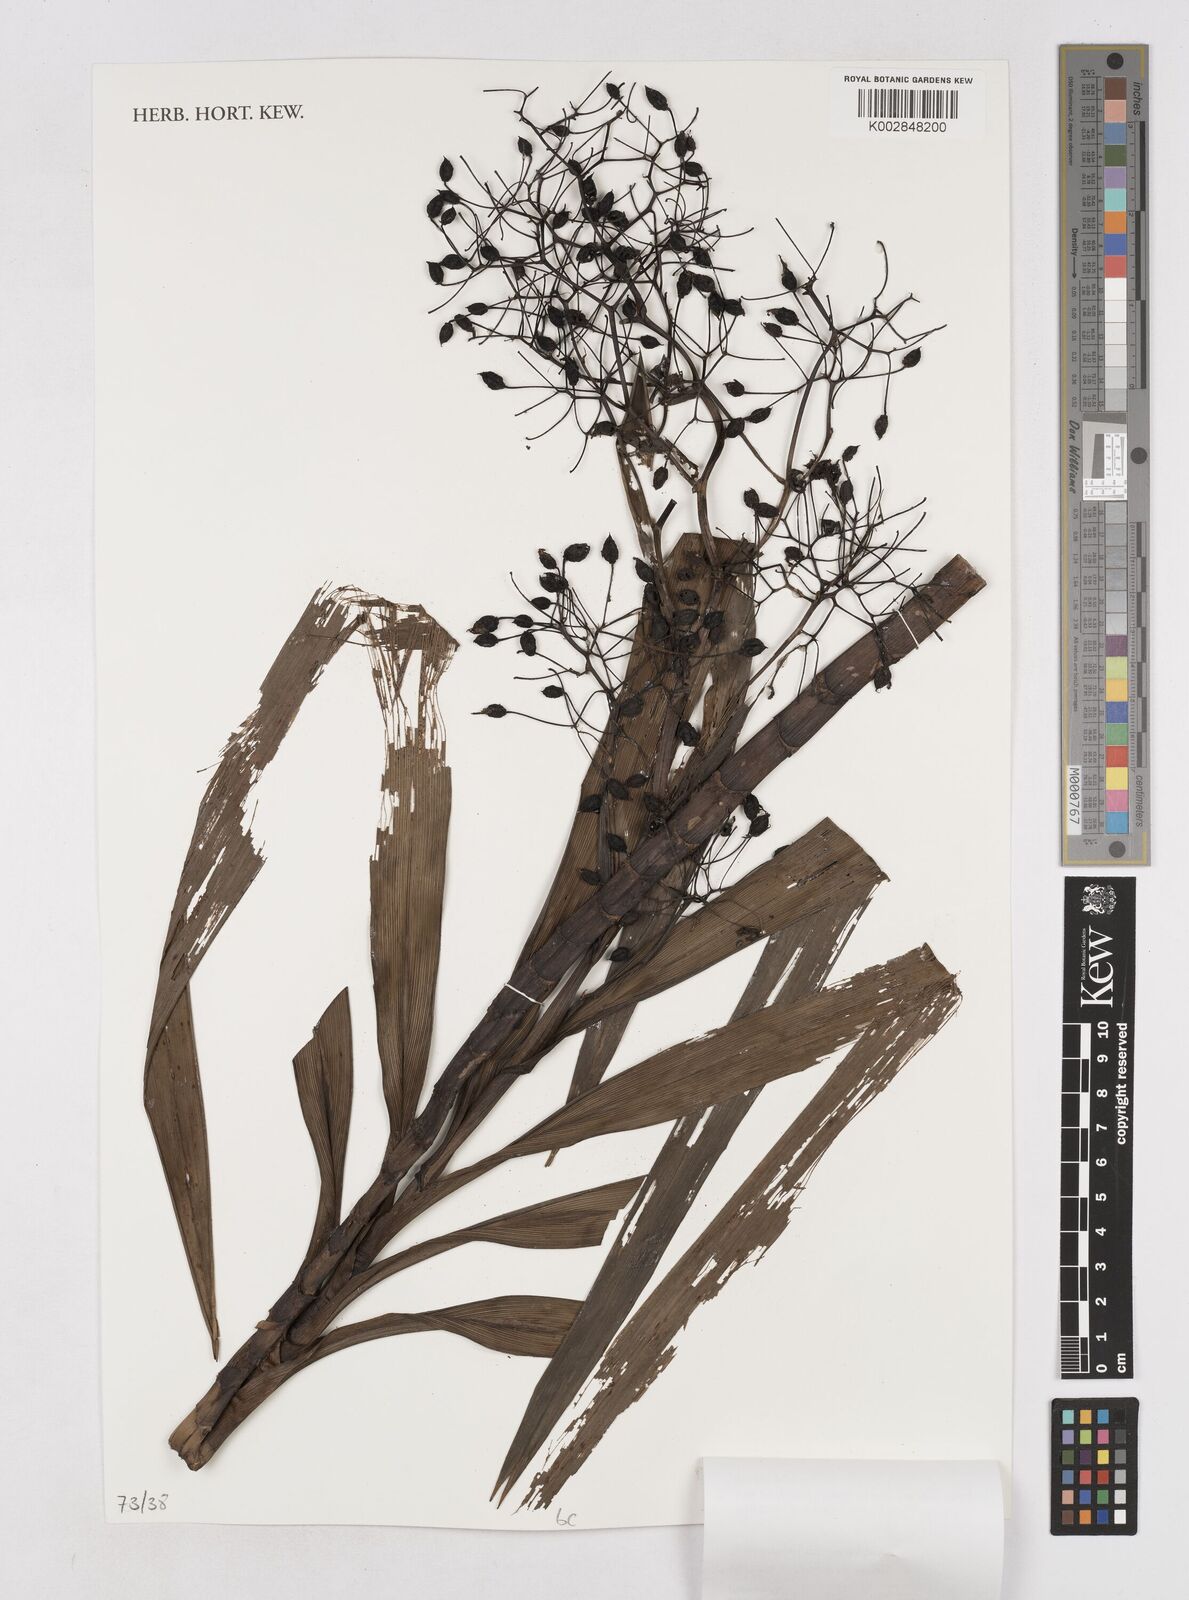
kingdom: Plantae
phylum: Tracheophyta
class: Liliopsida
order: Asparagales
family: Asphodelaceae
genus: Dianella
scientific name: Dianella ensifolia
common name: New zealand lilyplant
